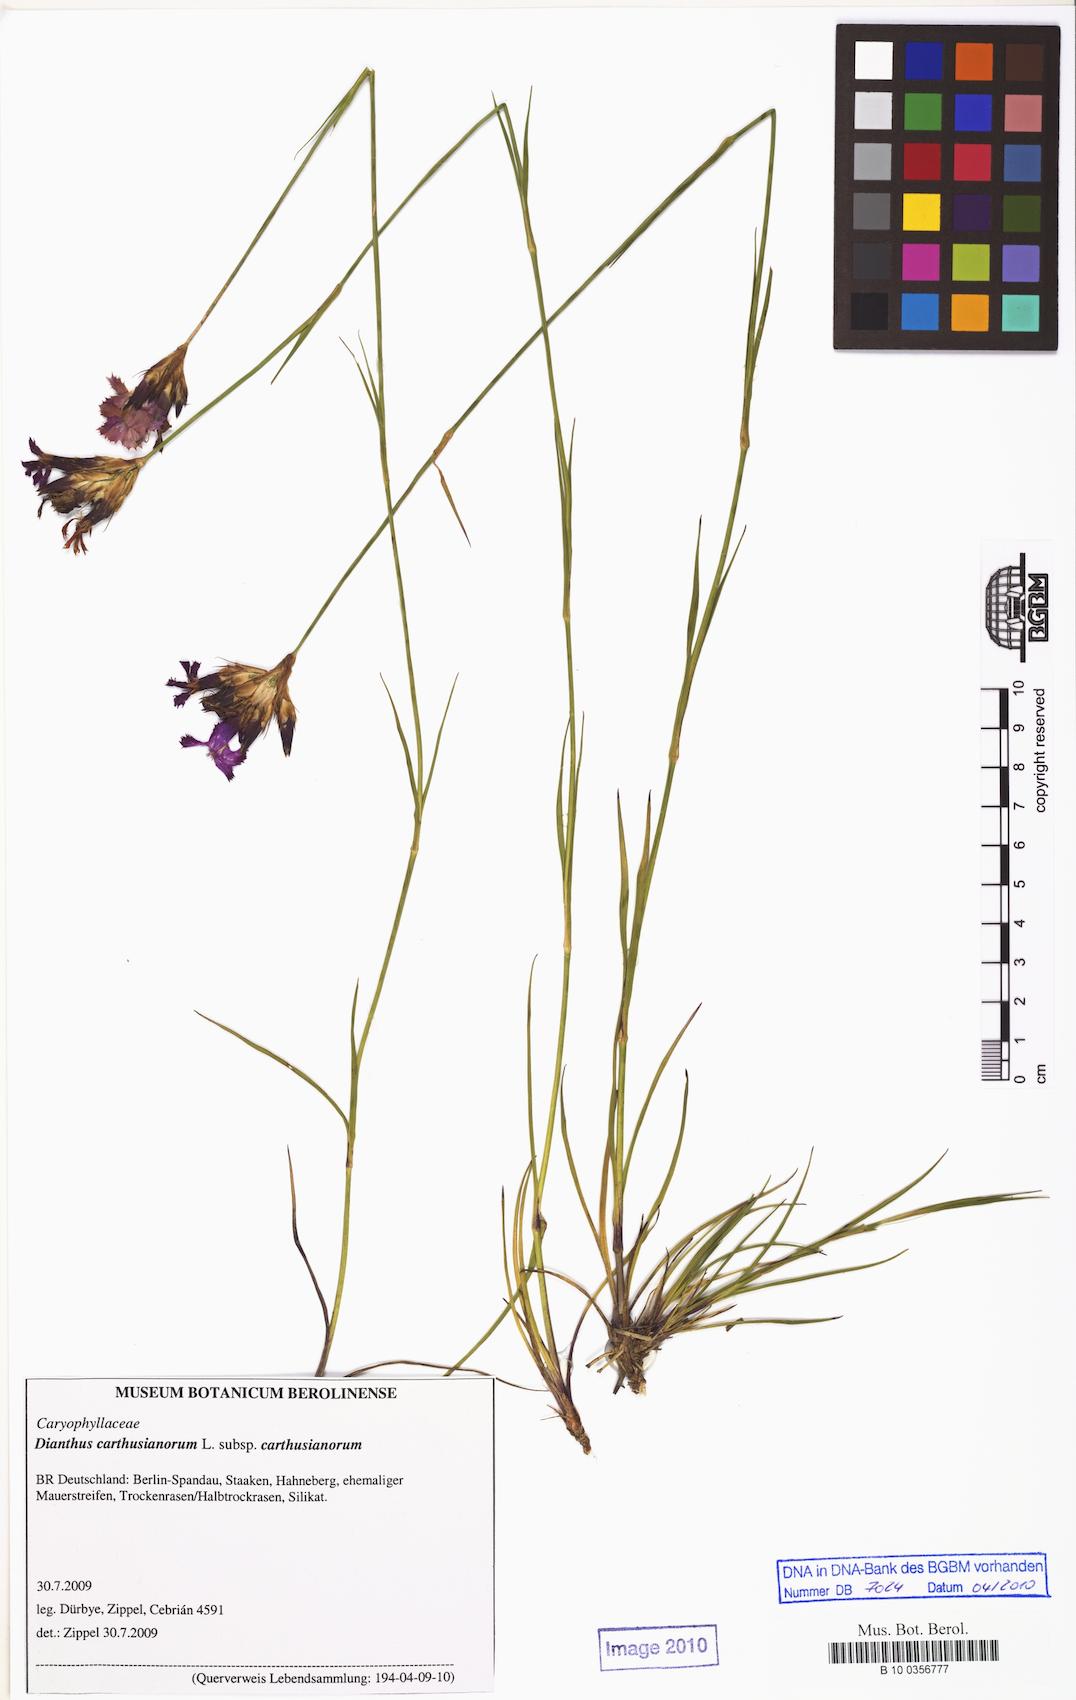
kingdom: Plantae
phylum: Tracheophyta
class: Magnoliopsida
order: Caryophyllales
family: Caryophyllaceae
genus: Dianthus
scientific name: Dianthus carthusianorum
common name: Carthusian pink
